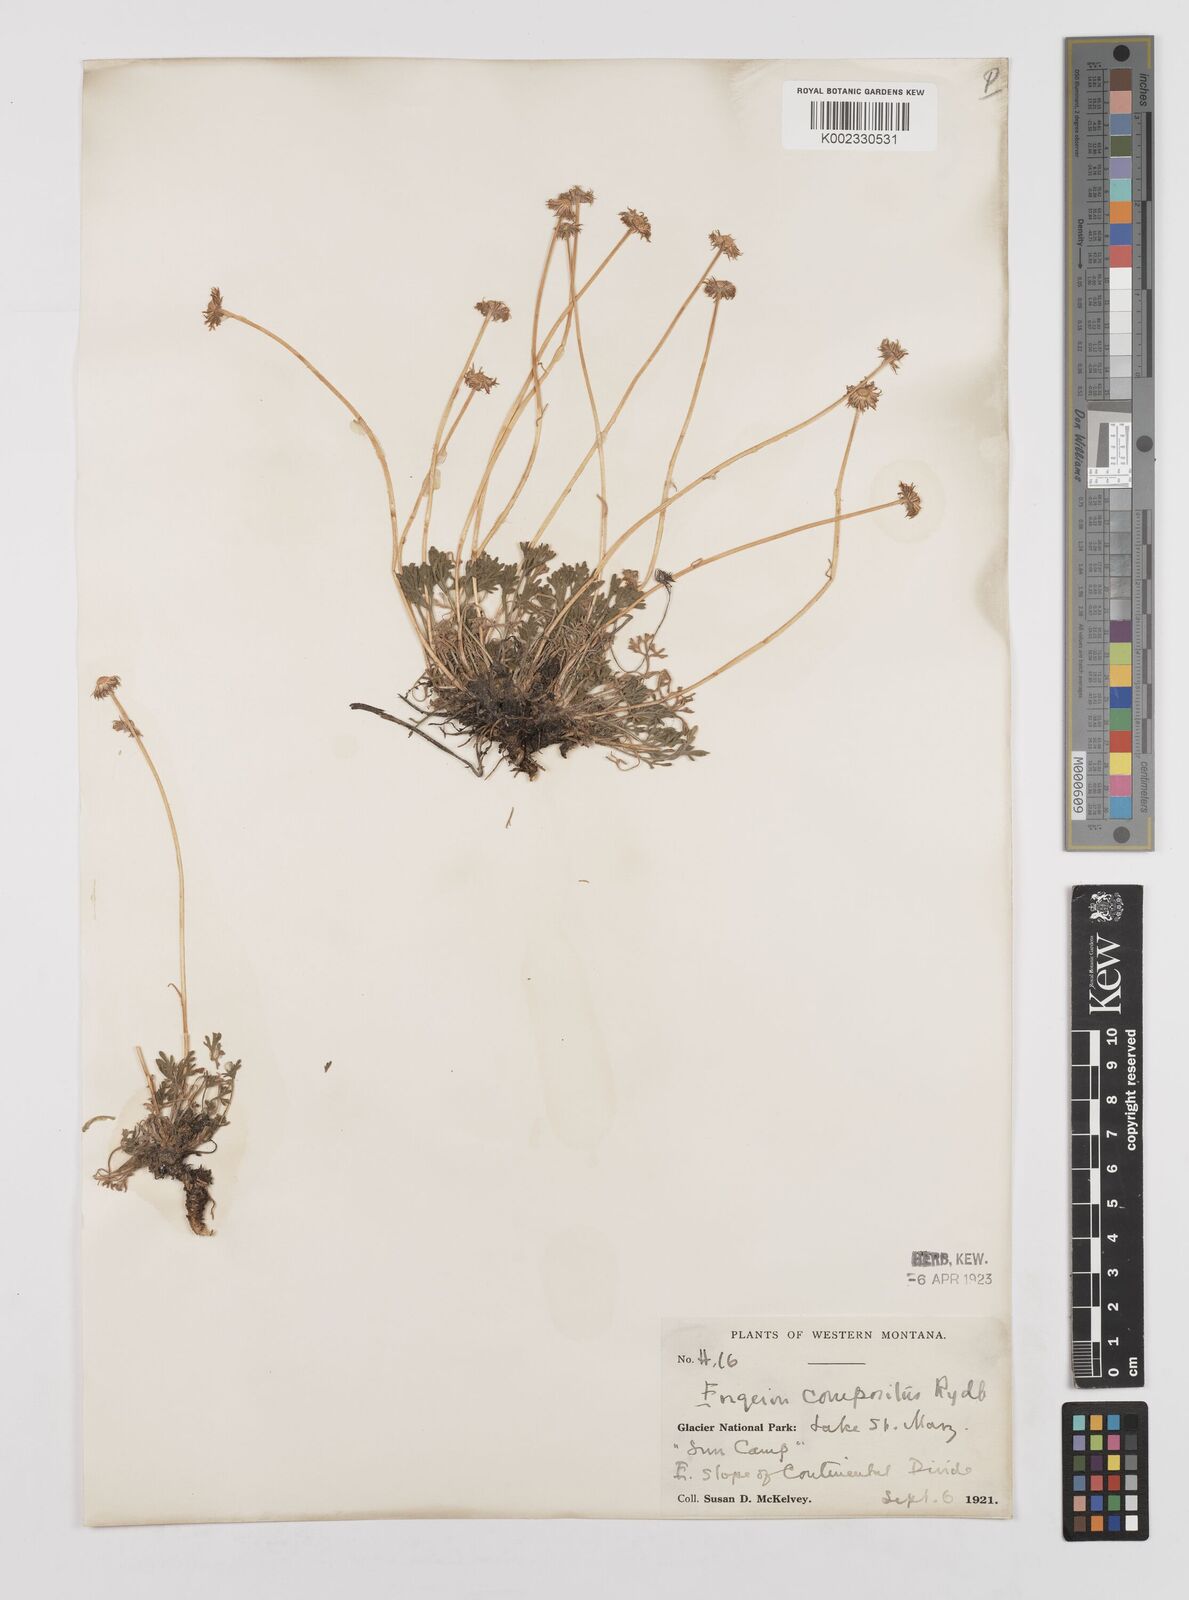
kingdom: Plantae
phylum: Tracheophyta
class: Magnoliopsida
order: Asterales
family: Asteraceae
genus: Erigeron
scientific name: Erigeron compositus
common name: Dwarf mountain fleabane
